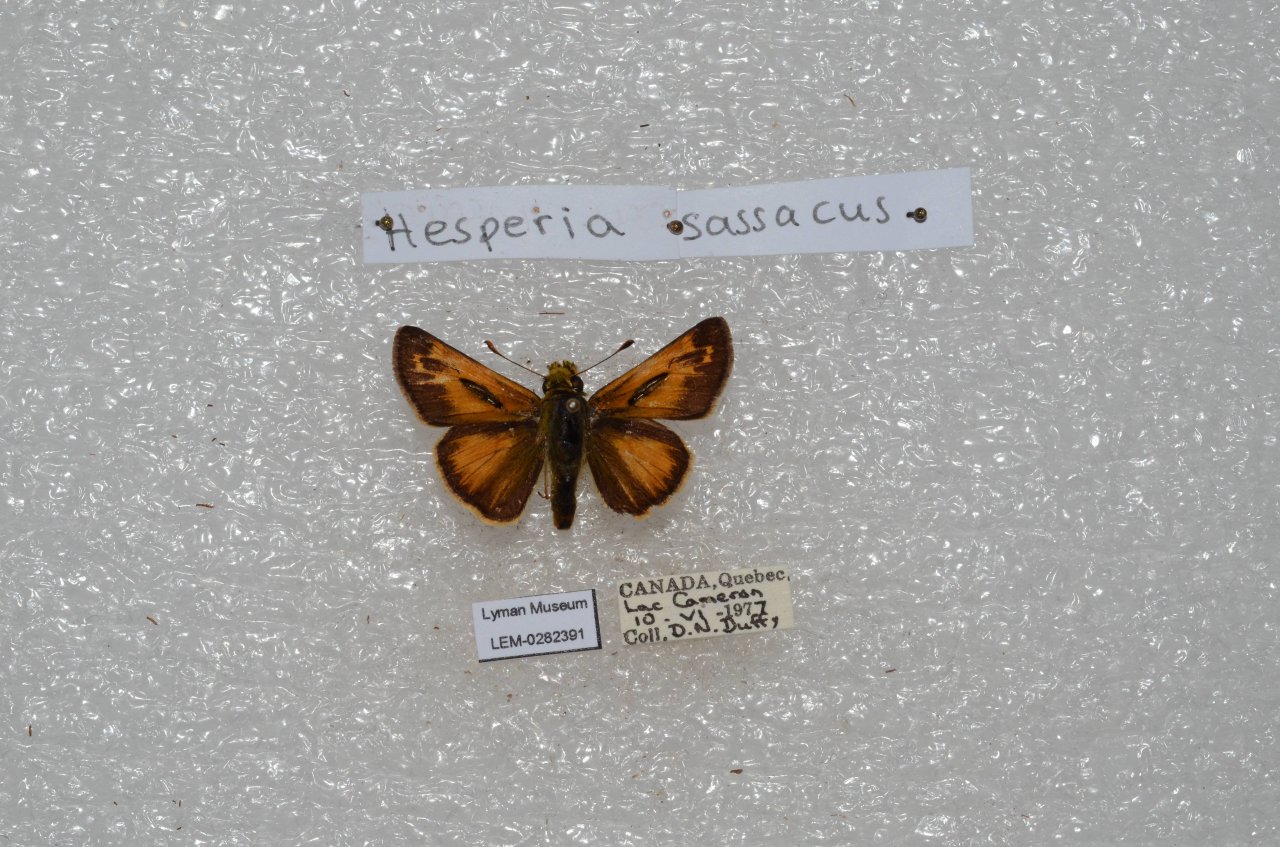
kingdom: Animalia
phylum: Arthropoda
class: Insecta
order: Lepidoptera
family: Hesperiidae
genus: Hesperia
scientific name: Hesperia sassacus
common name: Sassacus Skipper
